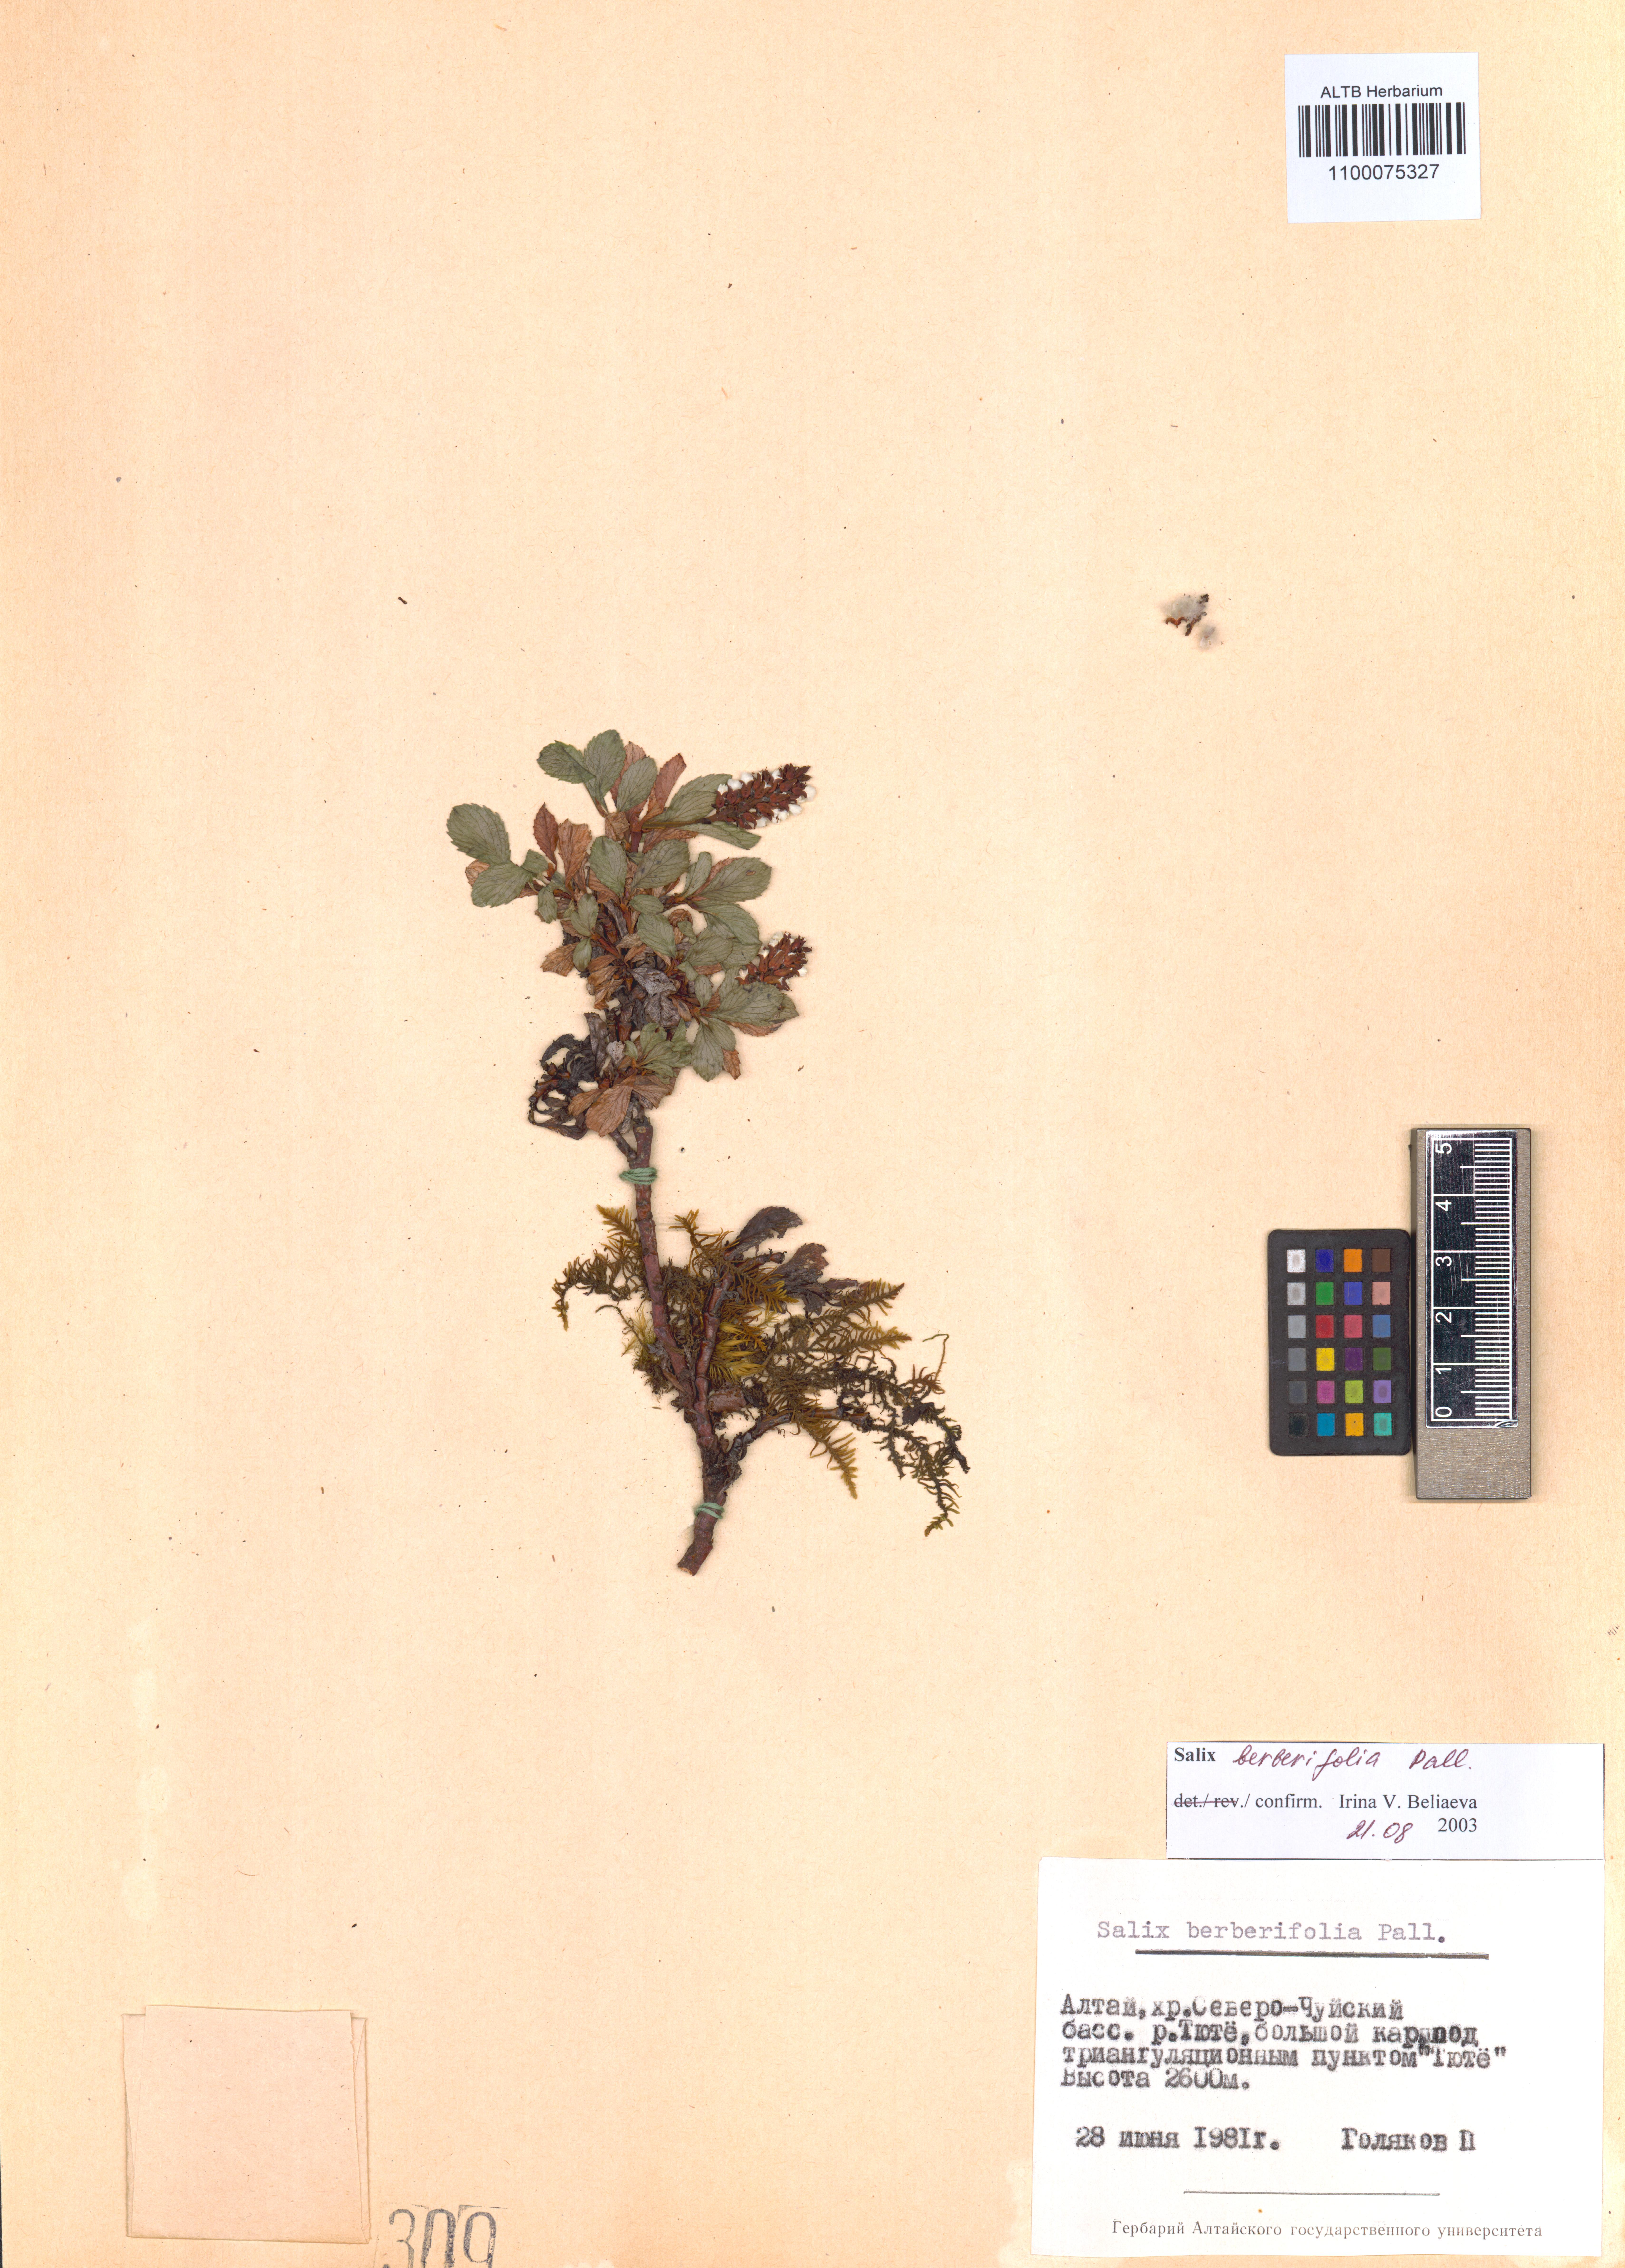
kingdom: Plantae
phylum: Tracheophyta
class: Magnoliopsida
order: Malpighiales
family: Salicaceae
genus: Salix
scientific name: Salix berberifolia
